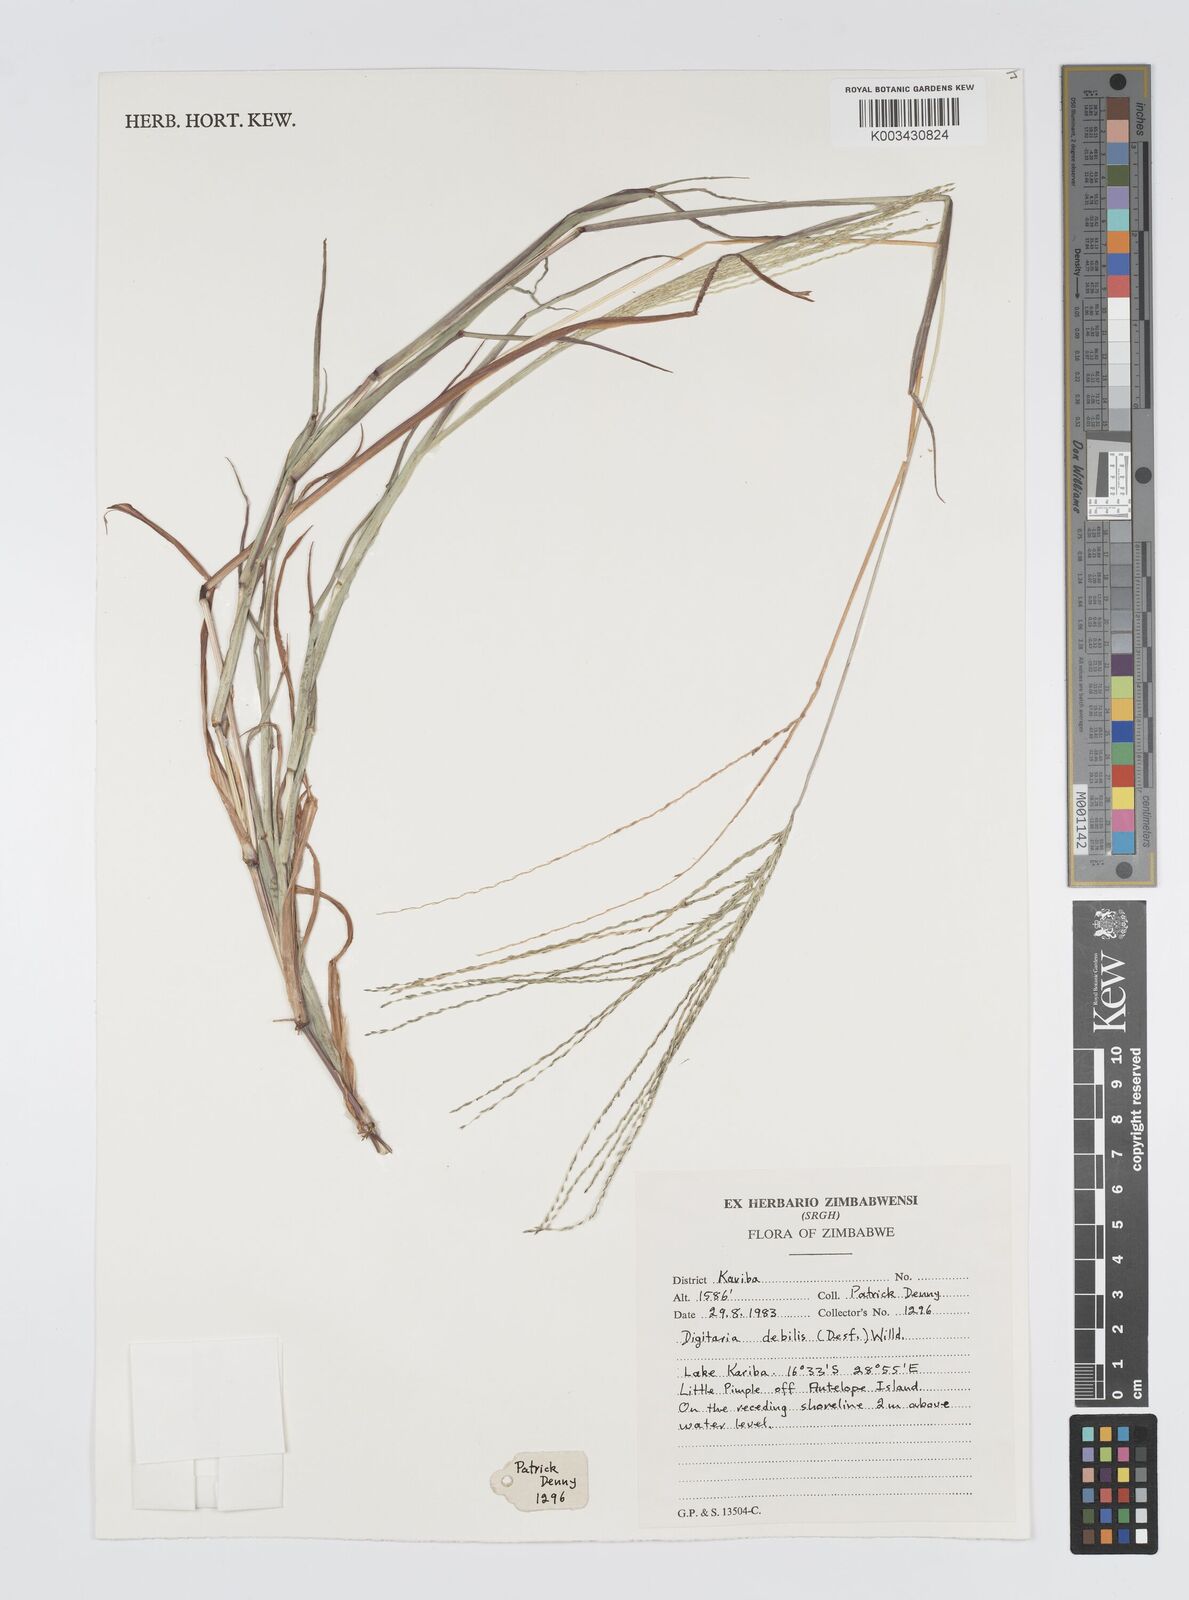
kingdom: Plantae
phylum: Tracheophyta
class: Liliopsida
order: Poales
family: Poaceae
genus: Digitaria
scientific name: Digitaria debilis
